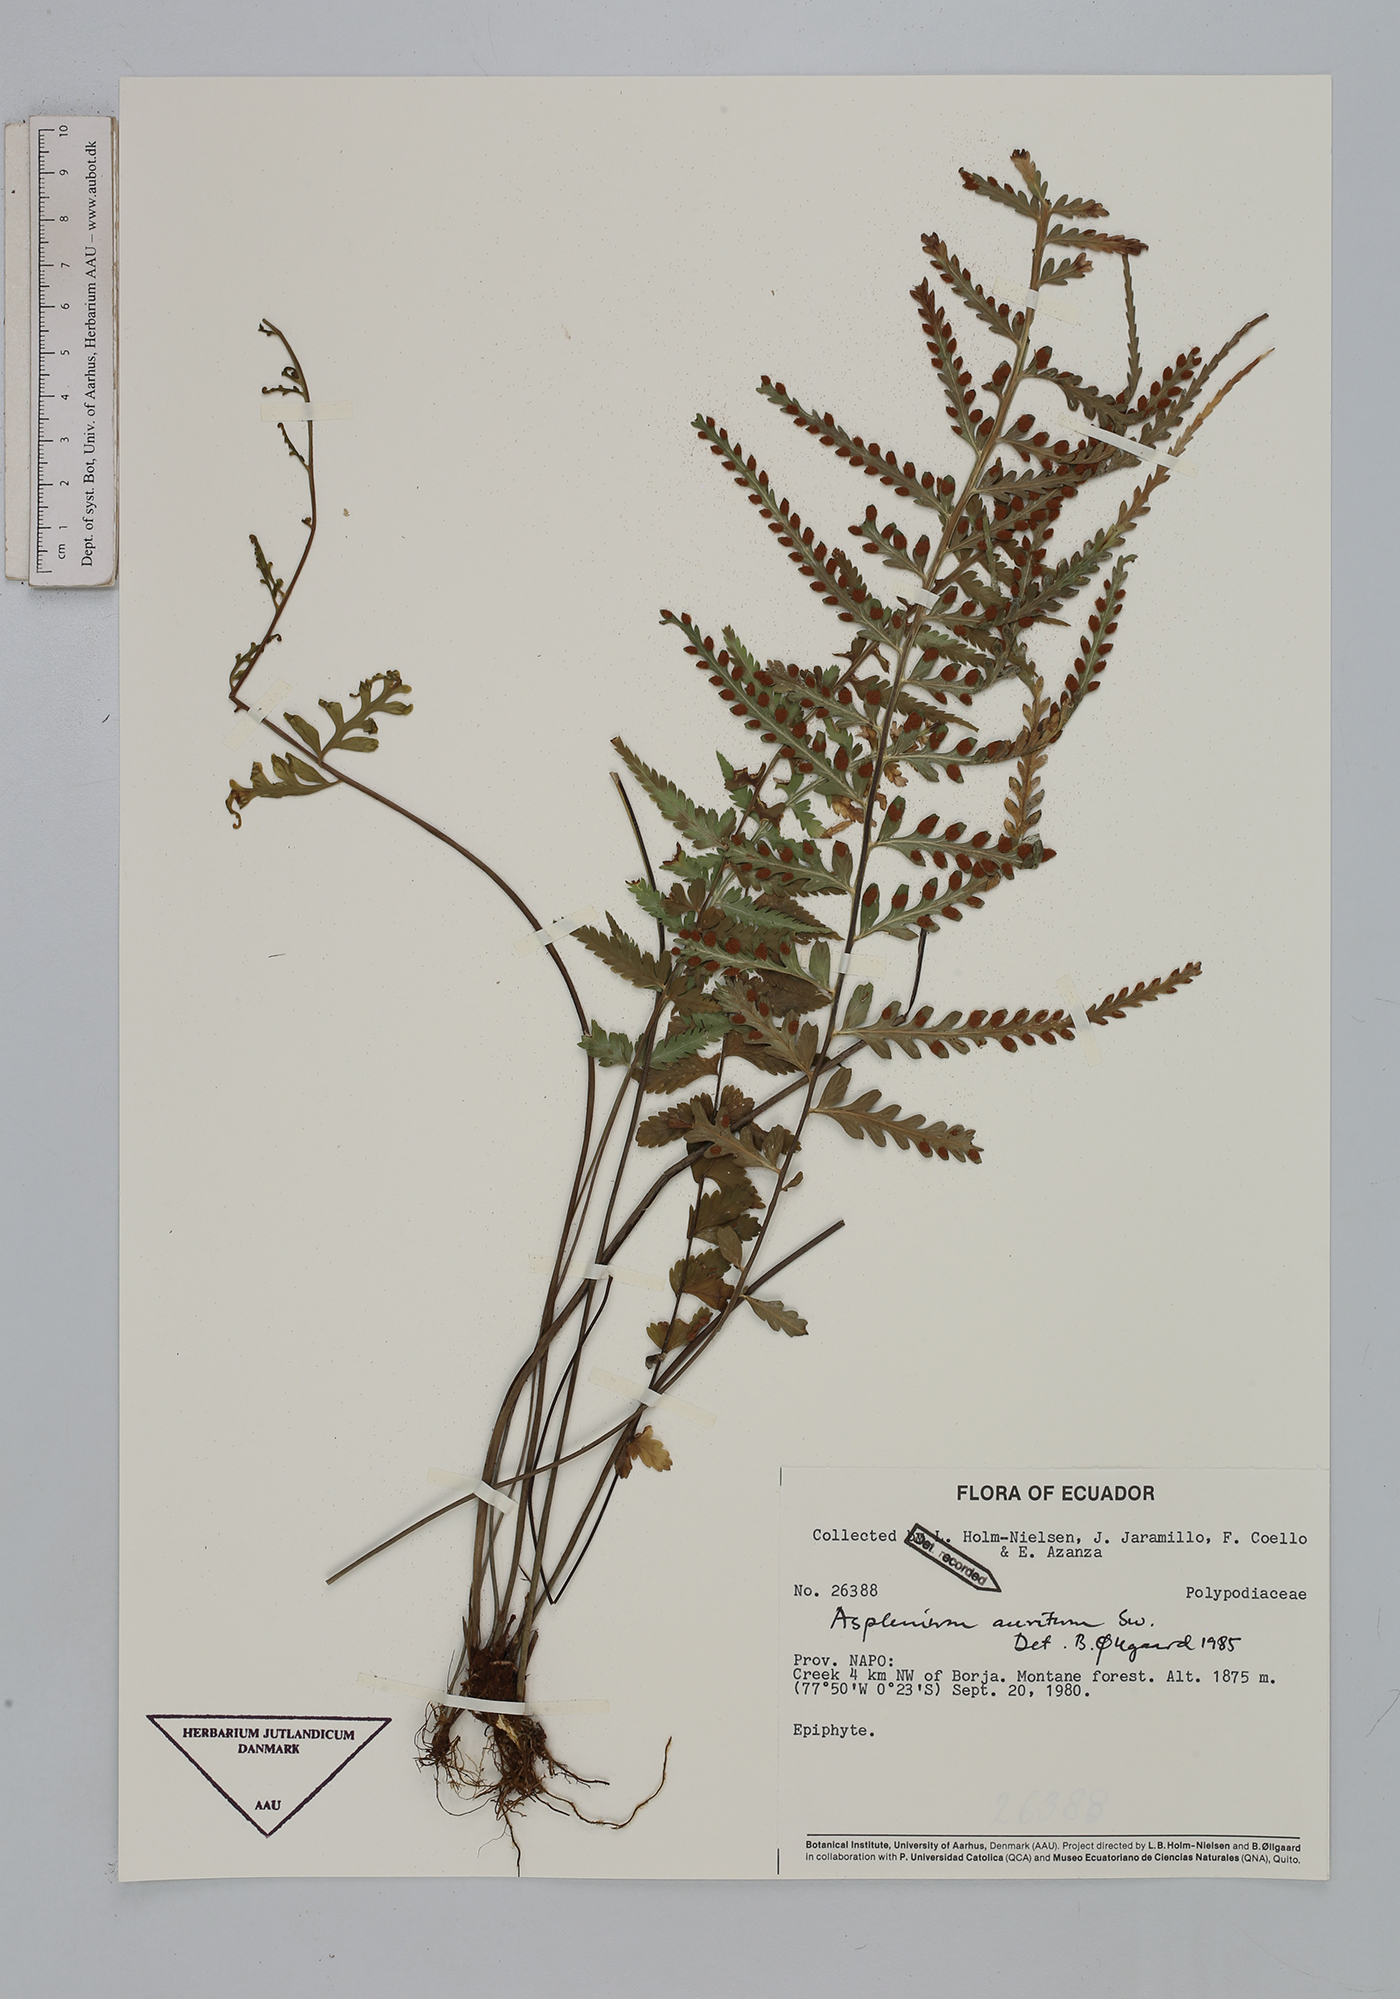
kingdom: Plantae
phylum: Tracheophyta
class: Polypodiopsida
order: Polypodiales
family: Aspleniaceae
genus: Asplenium
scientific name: Asplenium auritum
